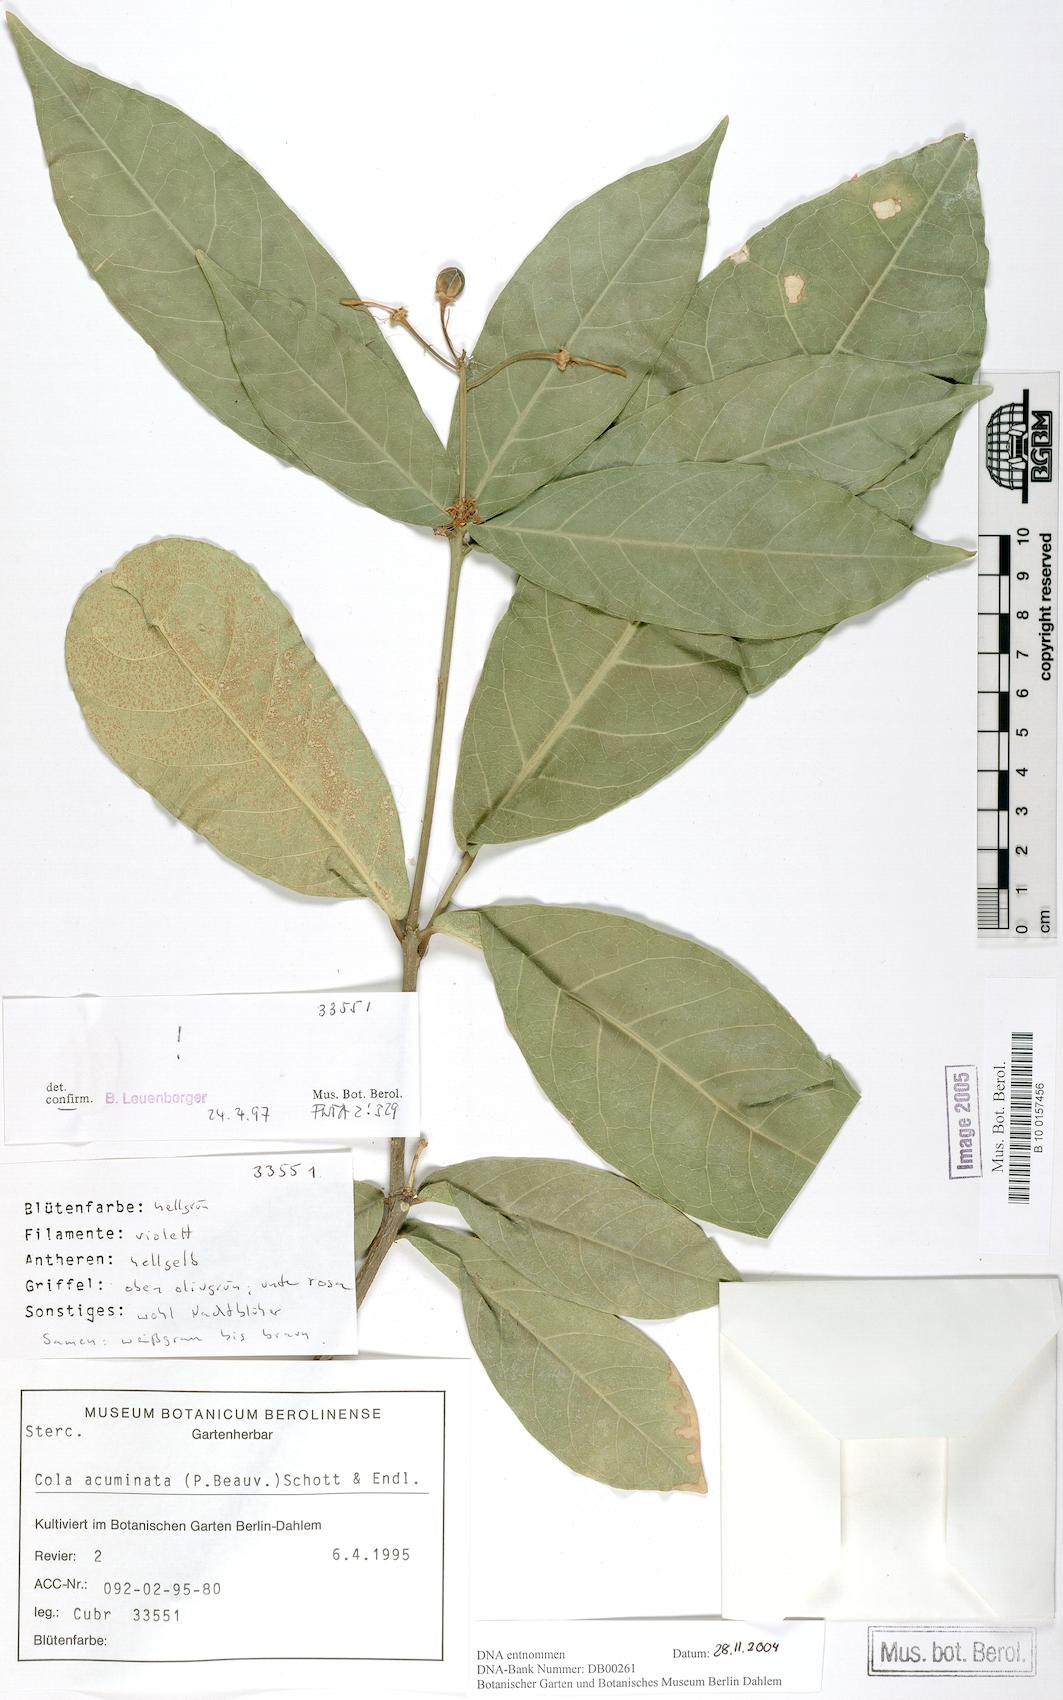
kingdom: Plantae
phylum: Tracheophyta
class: Magnoliopsida
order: Malvales
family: Malvaceae
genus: Cola
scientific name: Cola acuminata
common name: True kola
